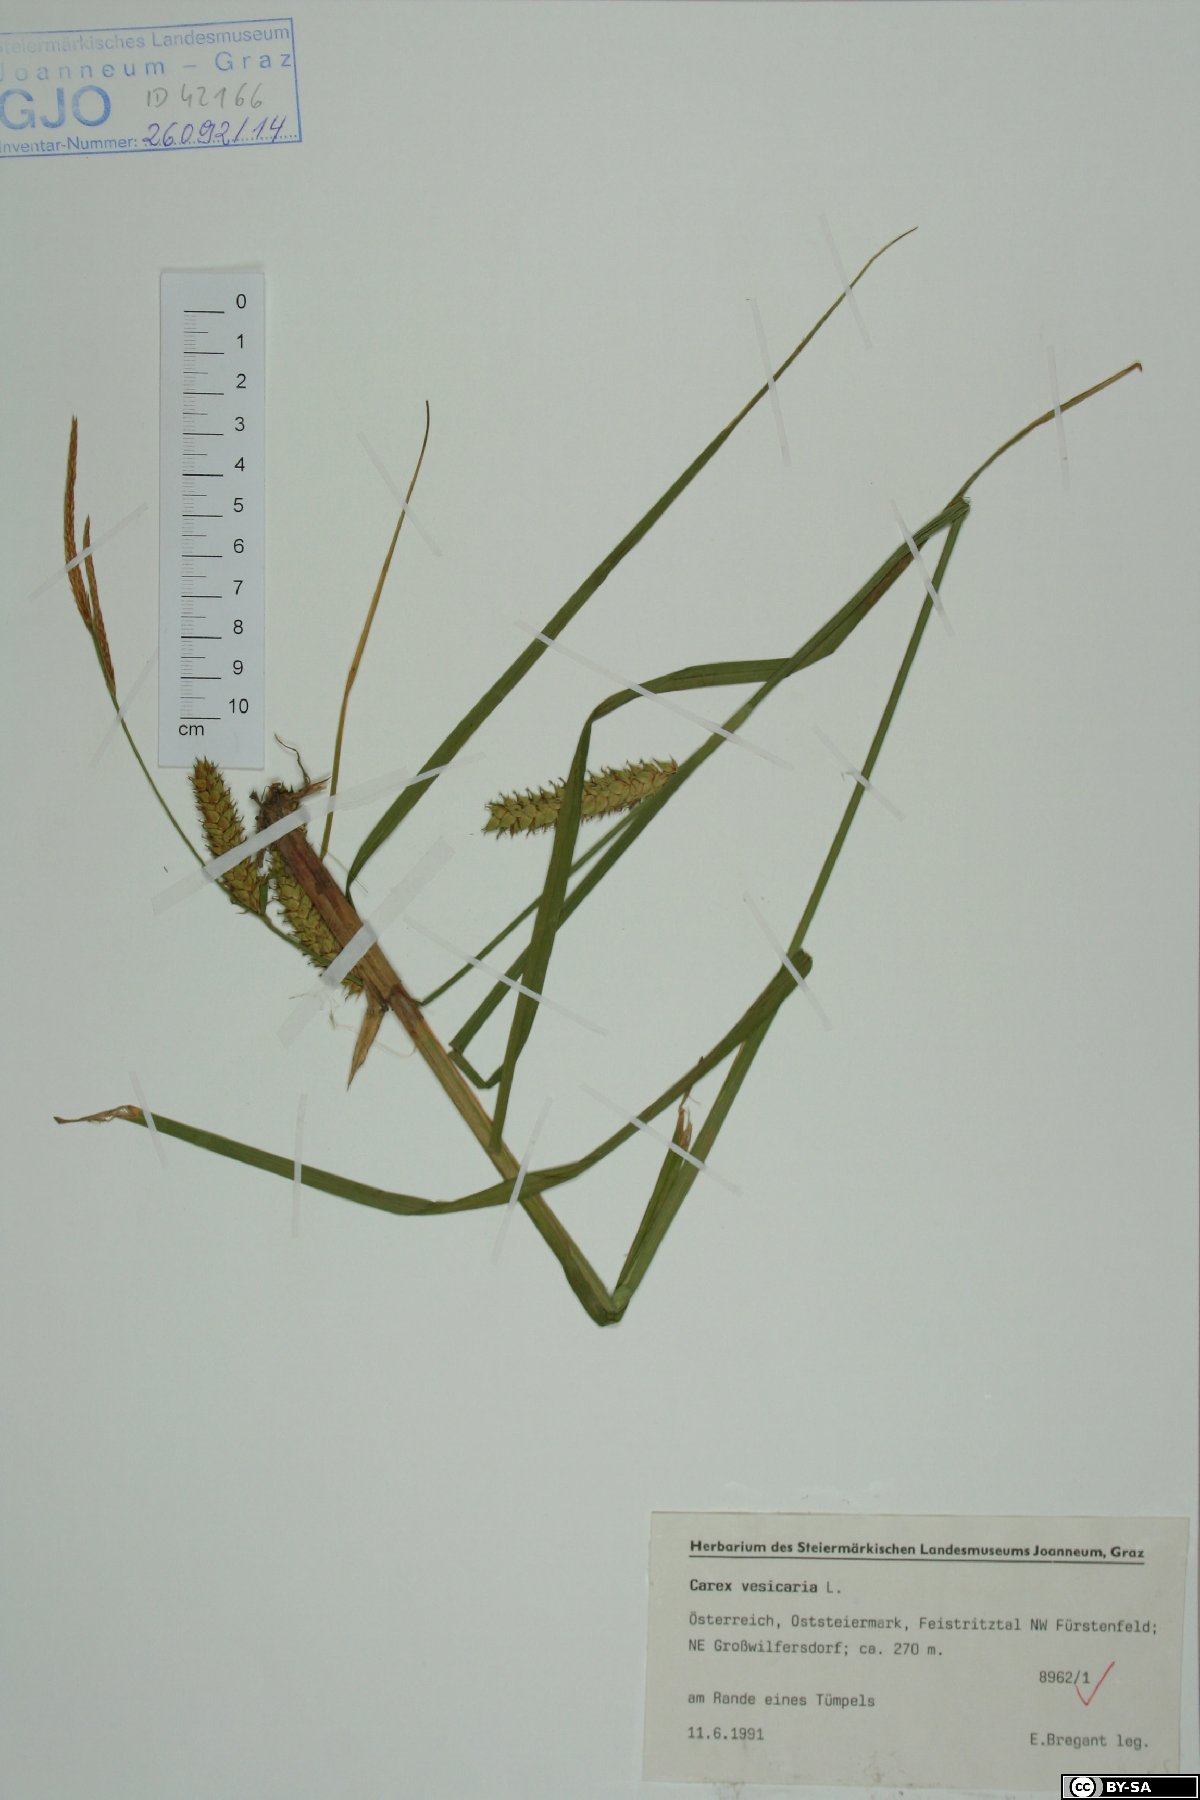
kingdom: Plantae
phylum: Tracheophyta
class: Liliopsida
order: Poales
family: Cyperaceae
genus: Carex
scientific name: Carex vesicaria
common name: Bladder-sedge
